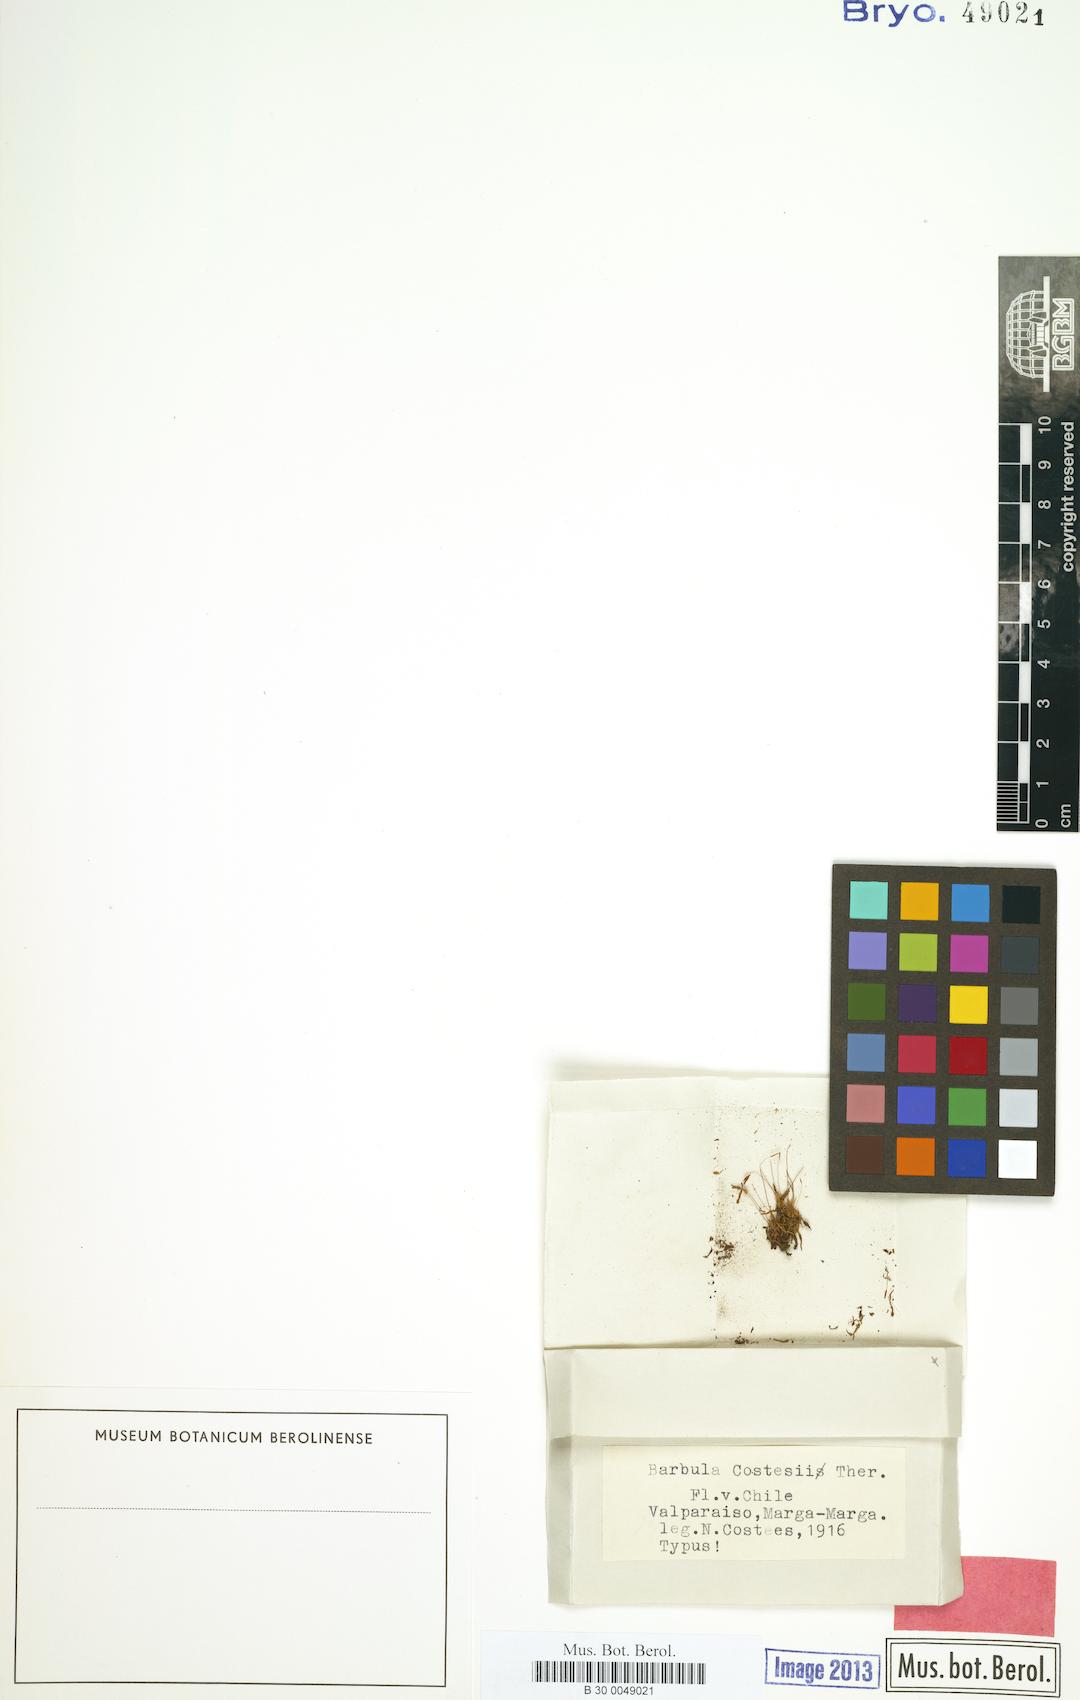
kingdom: Plantae
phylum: Bryophyta
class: Bryopsida
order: Pottiales
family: Pottiaceae
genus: Barbula
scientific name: Barbula costesii
